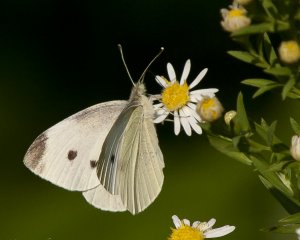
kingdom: Animalia
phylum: Arthropoda
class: Insecta
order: Lepidoptera
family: Pieridae
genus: Pieris
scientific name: Pieris rapae
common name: Cabbage White
